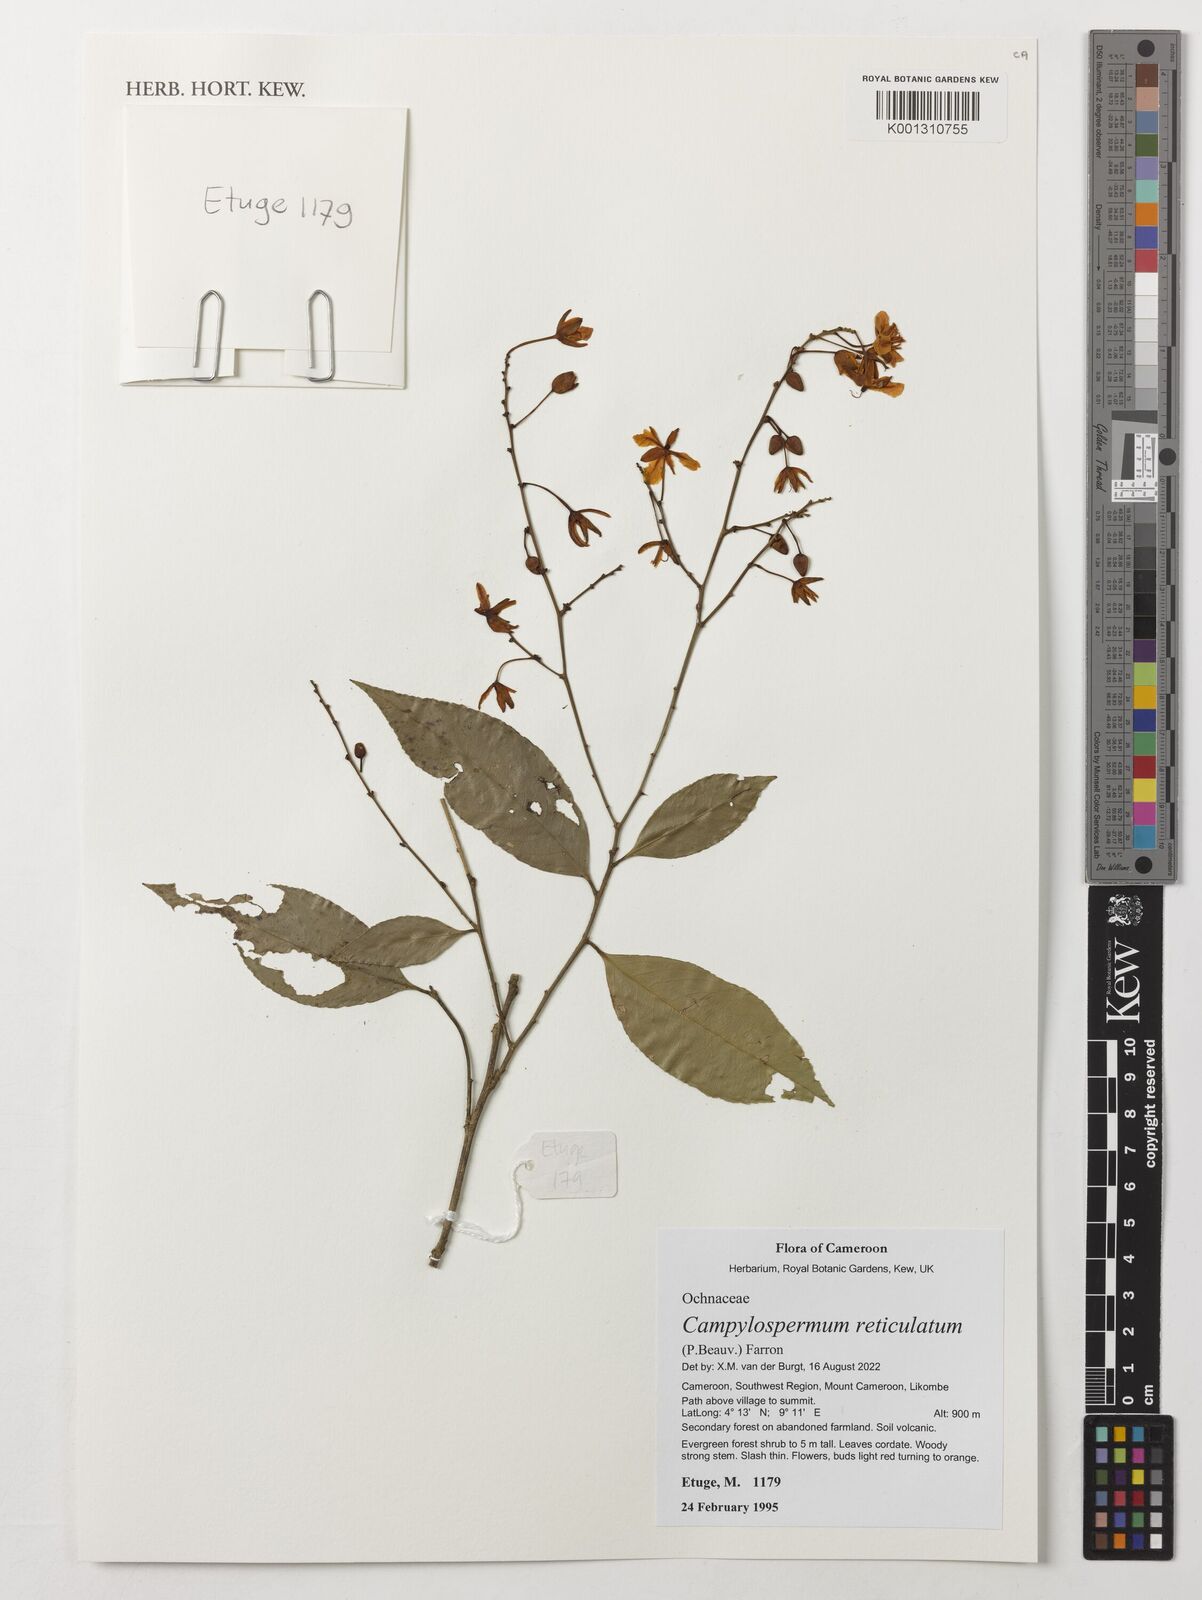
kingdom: Plantae
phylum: Tracheophyta
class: Magnoliopsida
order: Malpighiales
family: Ochnaceae
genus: Campylospermum
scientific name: Campylospermum reticulatum
